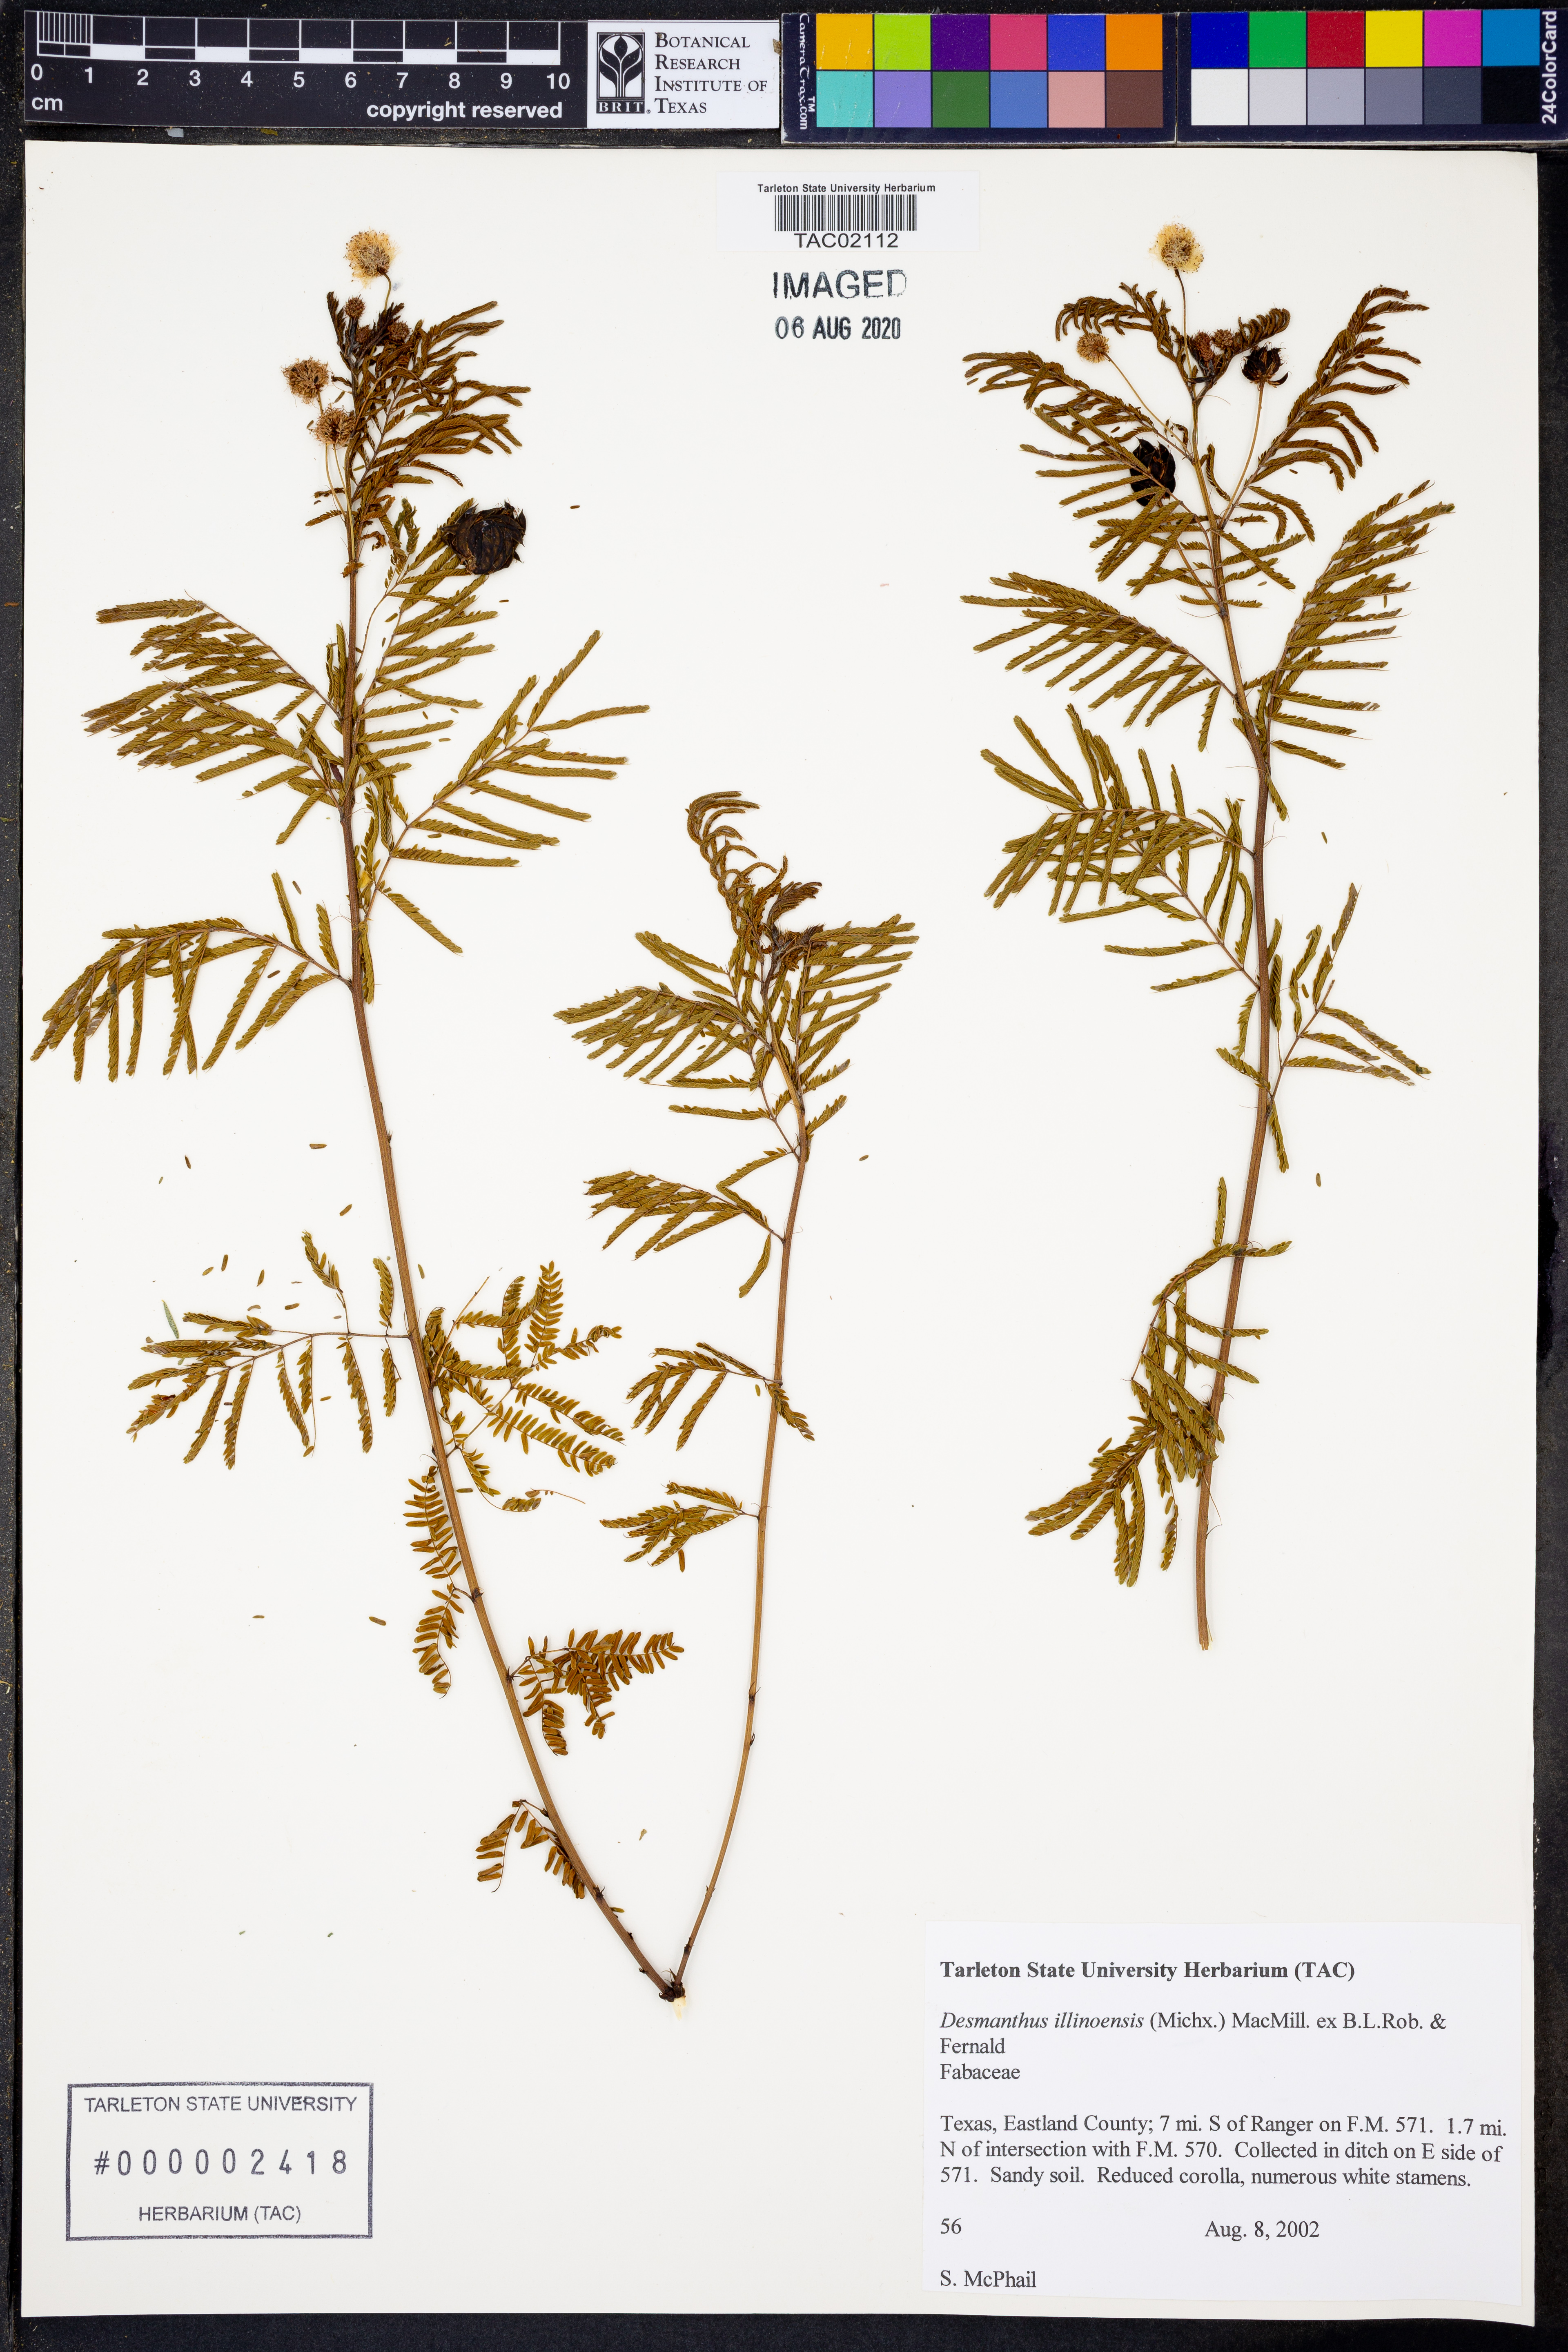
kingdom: Plantae
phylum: Tracheophyta
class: Magnoliopsida
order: Fabales
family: Fabaceae
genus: Desmanthus
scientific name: Desmanthus illinoensis
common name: Illinois bundle-flower
